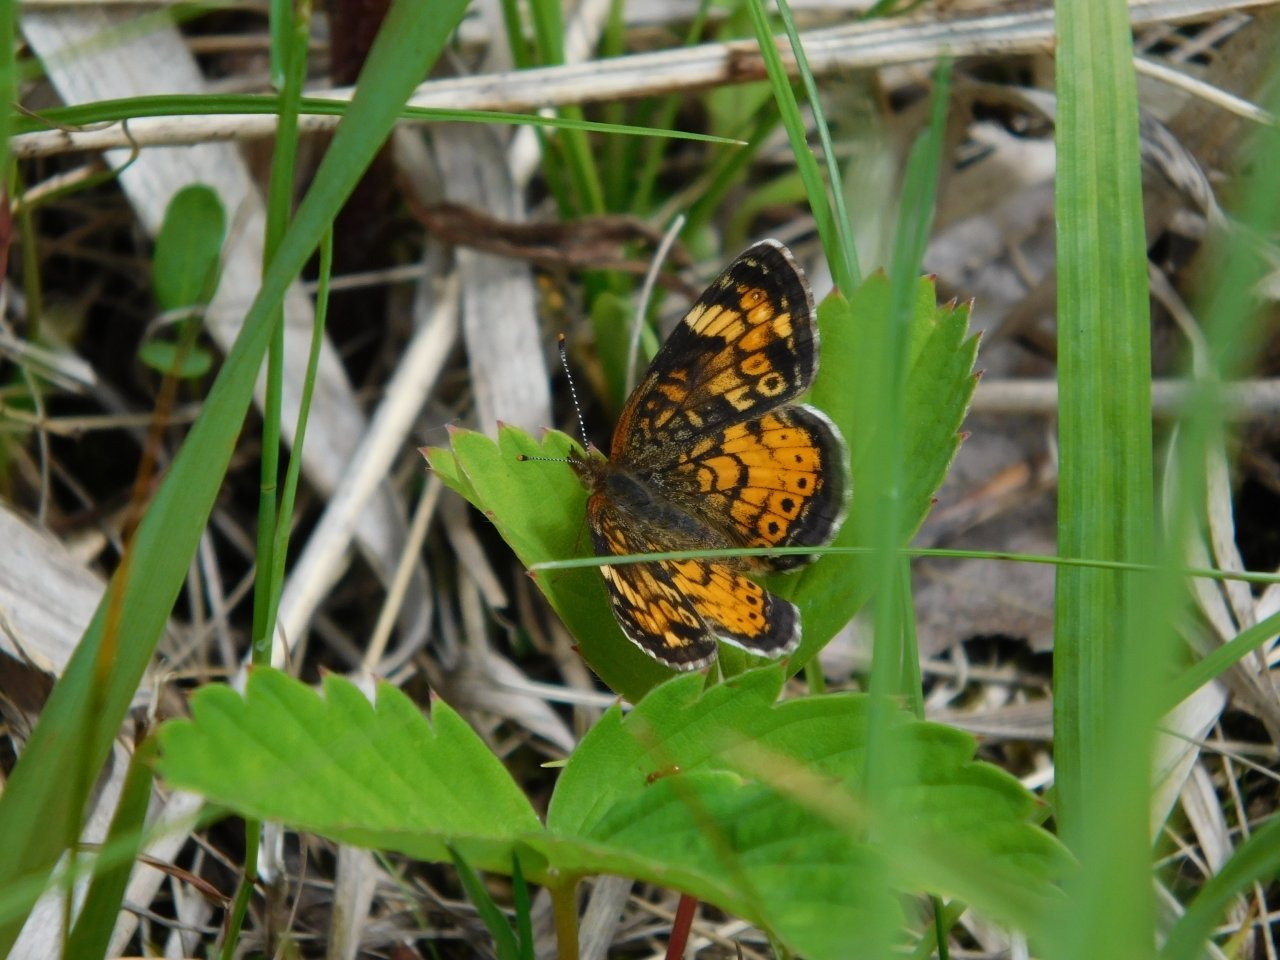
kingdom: Animalia
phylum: Arthropoda
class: Insecta
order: Lepidoptera
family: Nymphalidae
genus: Phyciodes
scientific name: Phyciodes tharos
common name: Northern Crescent
